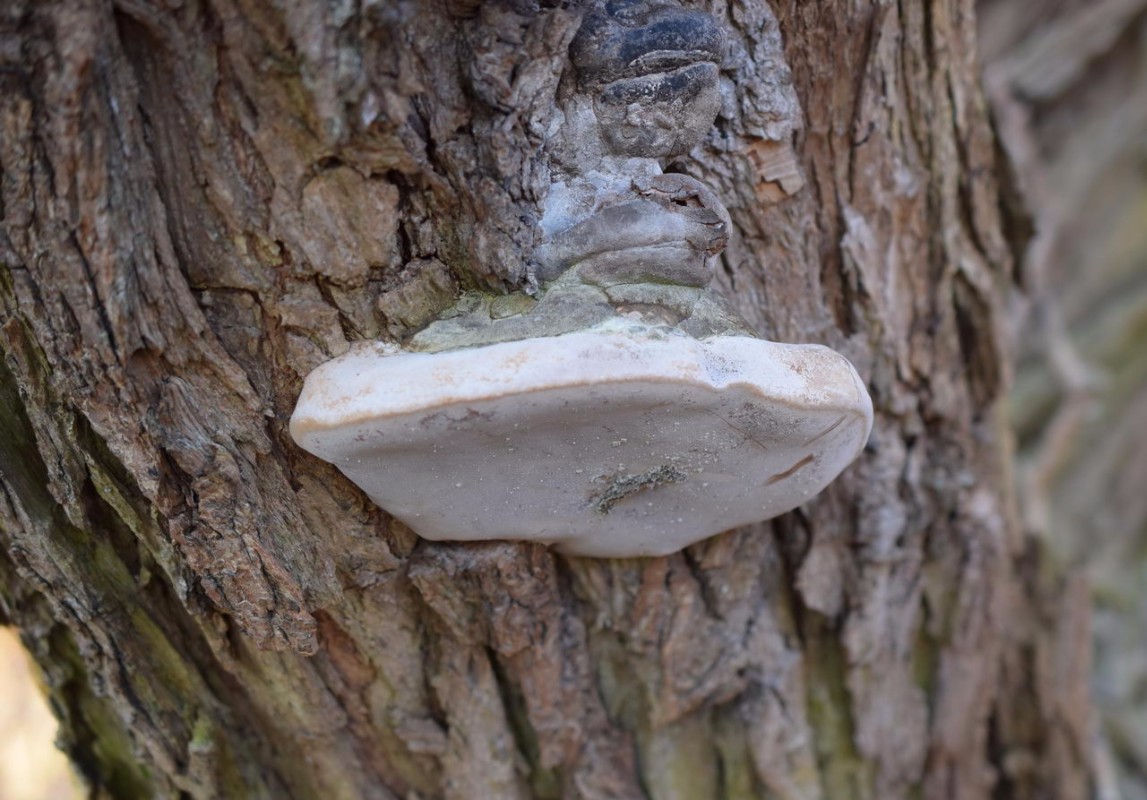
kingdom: Fungi
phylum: Basidiomycota
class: Agaricomycetes
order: Hymenochaetales
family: Hymenochaetaceae
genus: Phellinus
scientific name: Phellinus igniarius
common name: almindelig ildporesvamp
